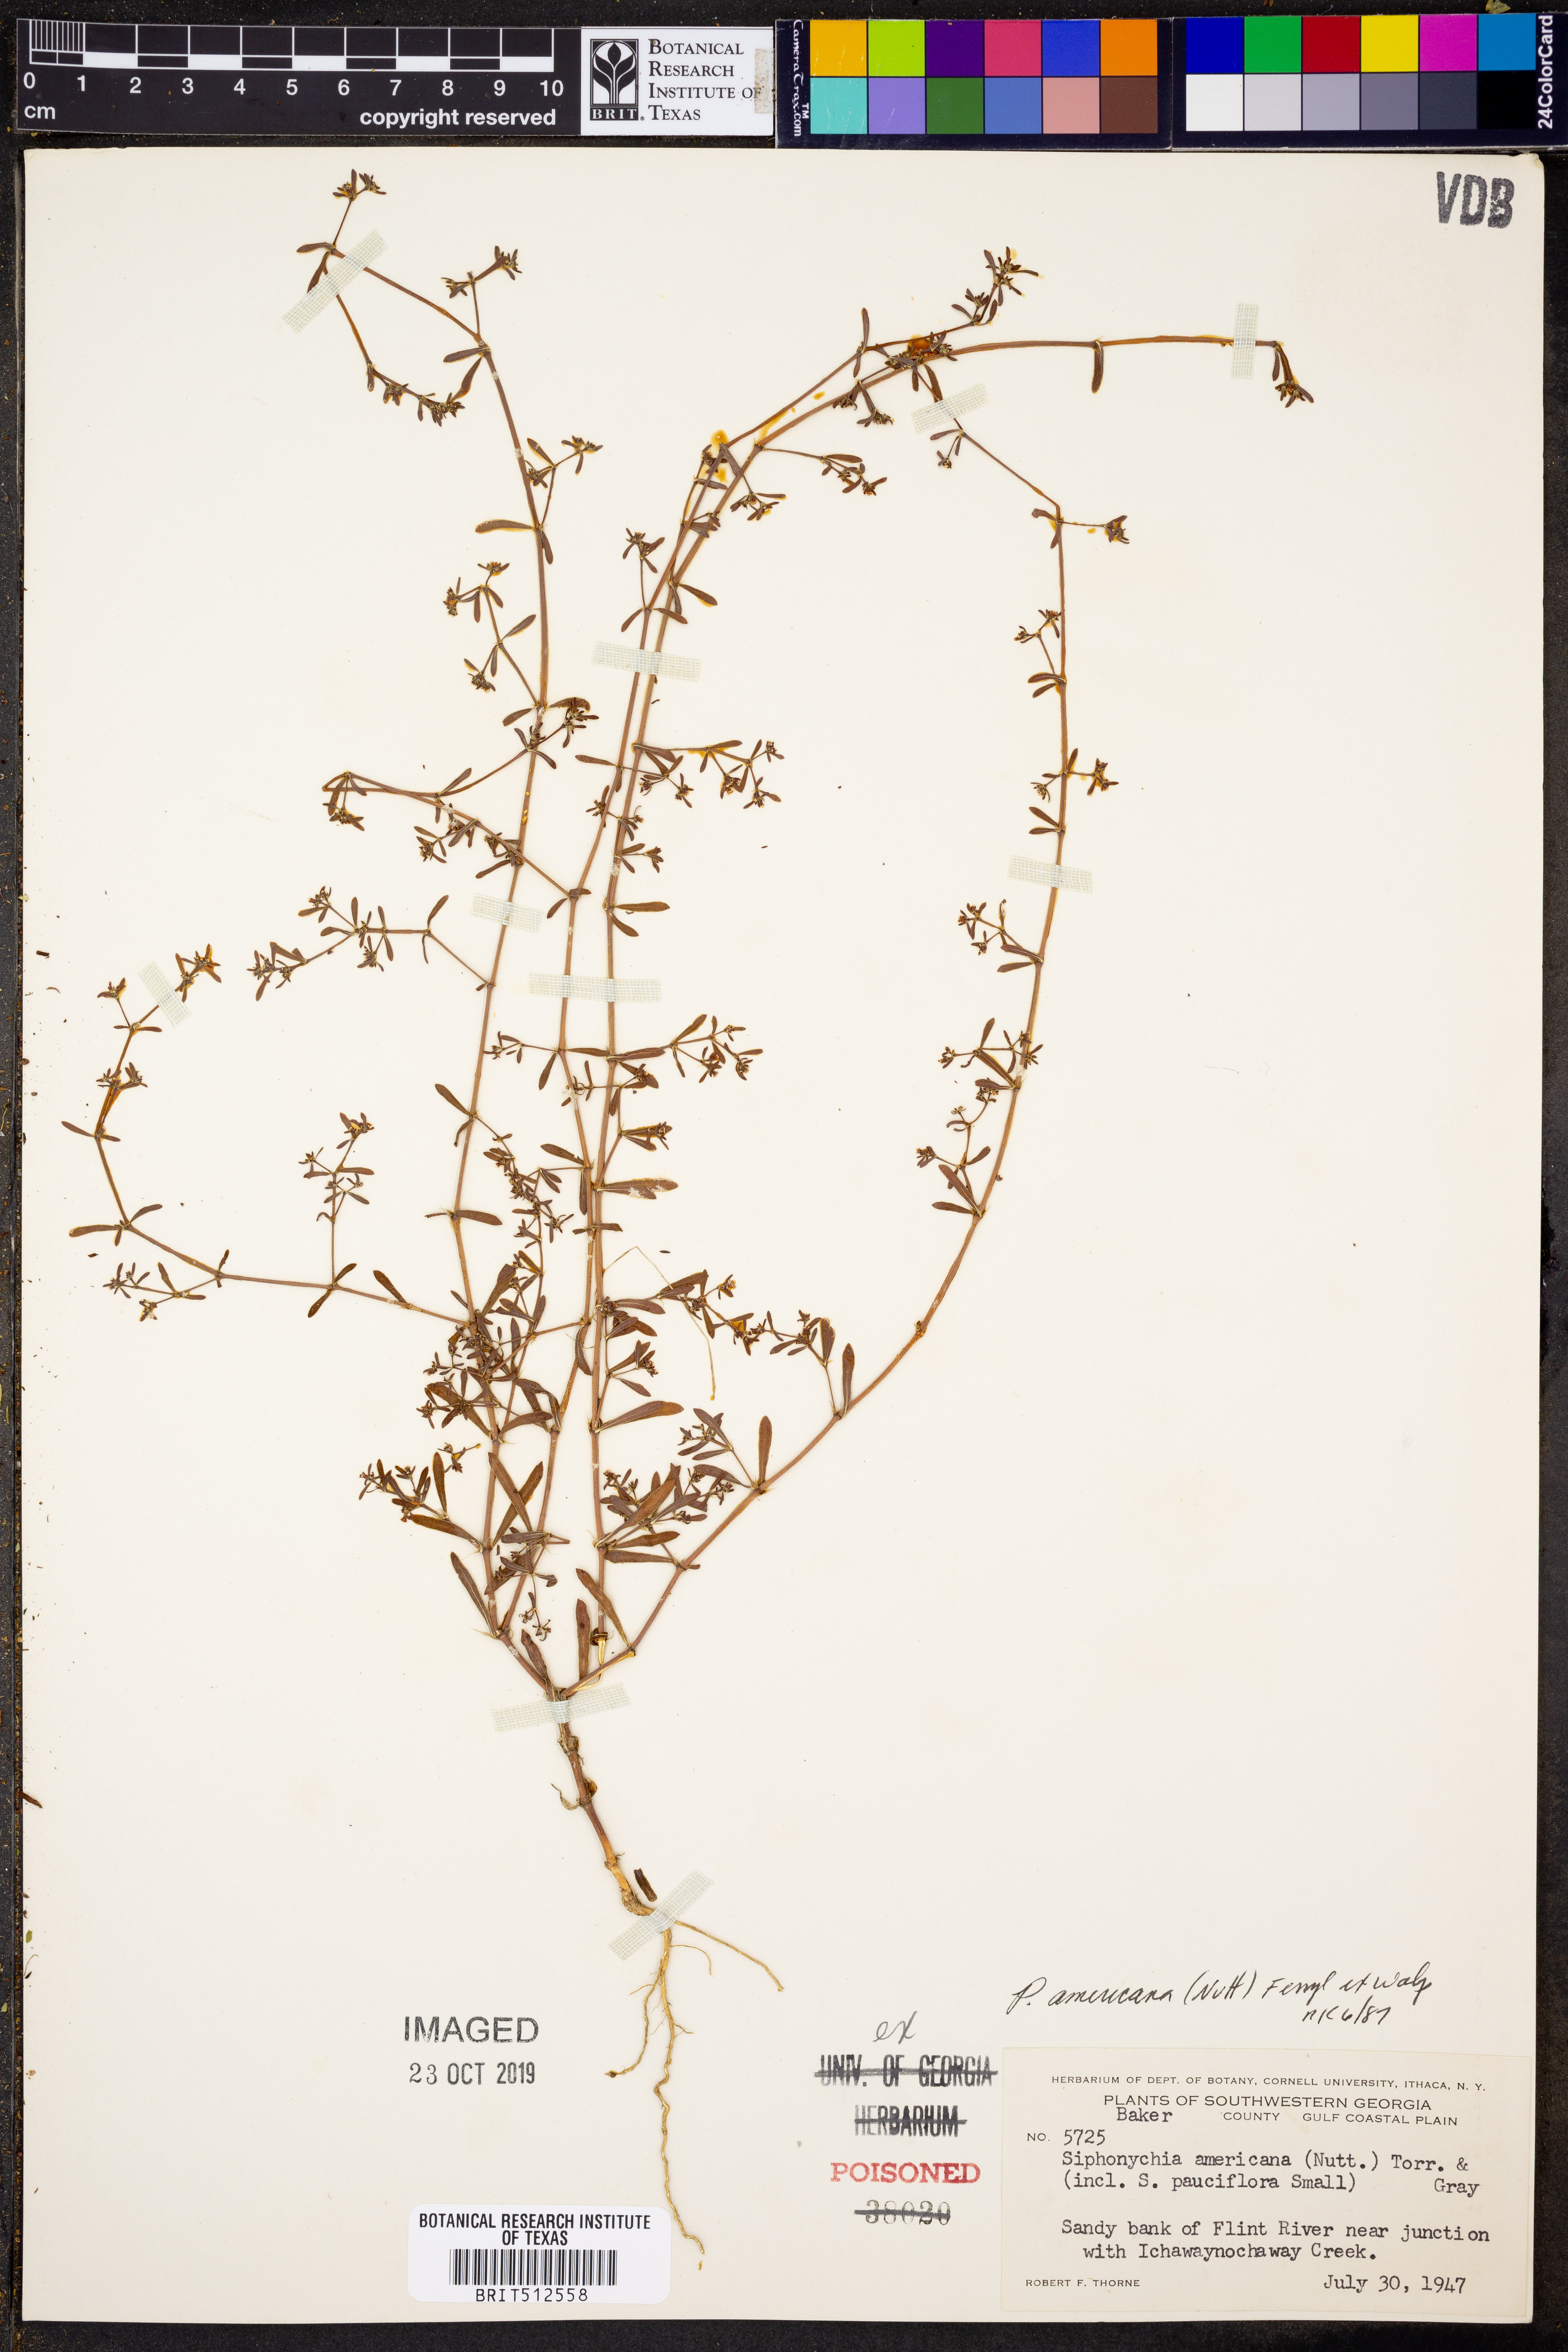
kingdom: Plantae
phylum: Tracheophyta
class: Magnoliopsida
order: Caryophyllales
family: Caryophyllaceae
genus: Paronychia
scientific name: Paronychia americana
